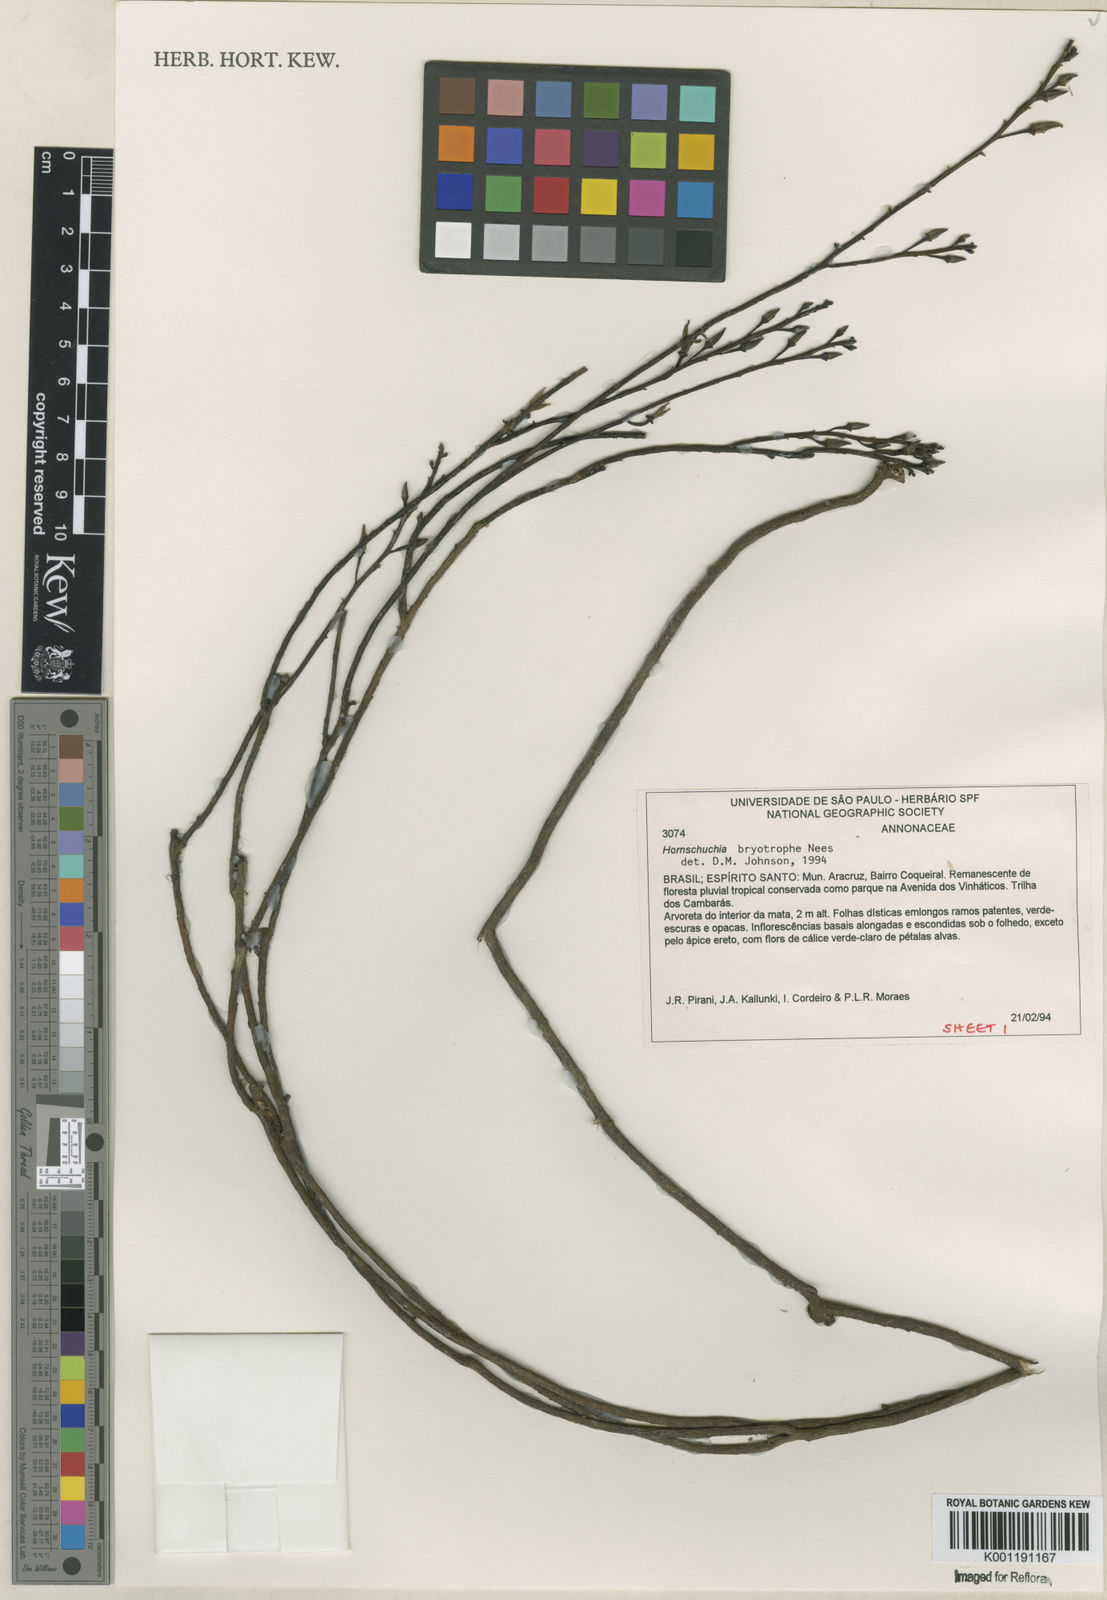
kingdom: Plantae
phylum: Tracheophyta
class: Magnoliopsida
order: Magnoliales
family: Annonaceae
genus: Hornschuchia
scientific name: Hornschuchia bryotrophe
